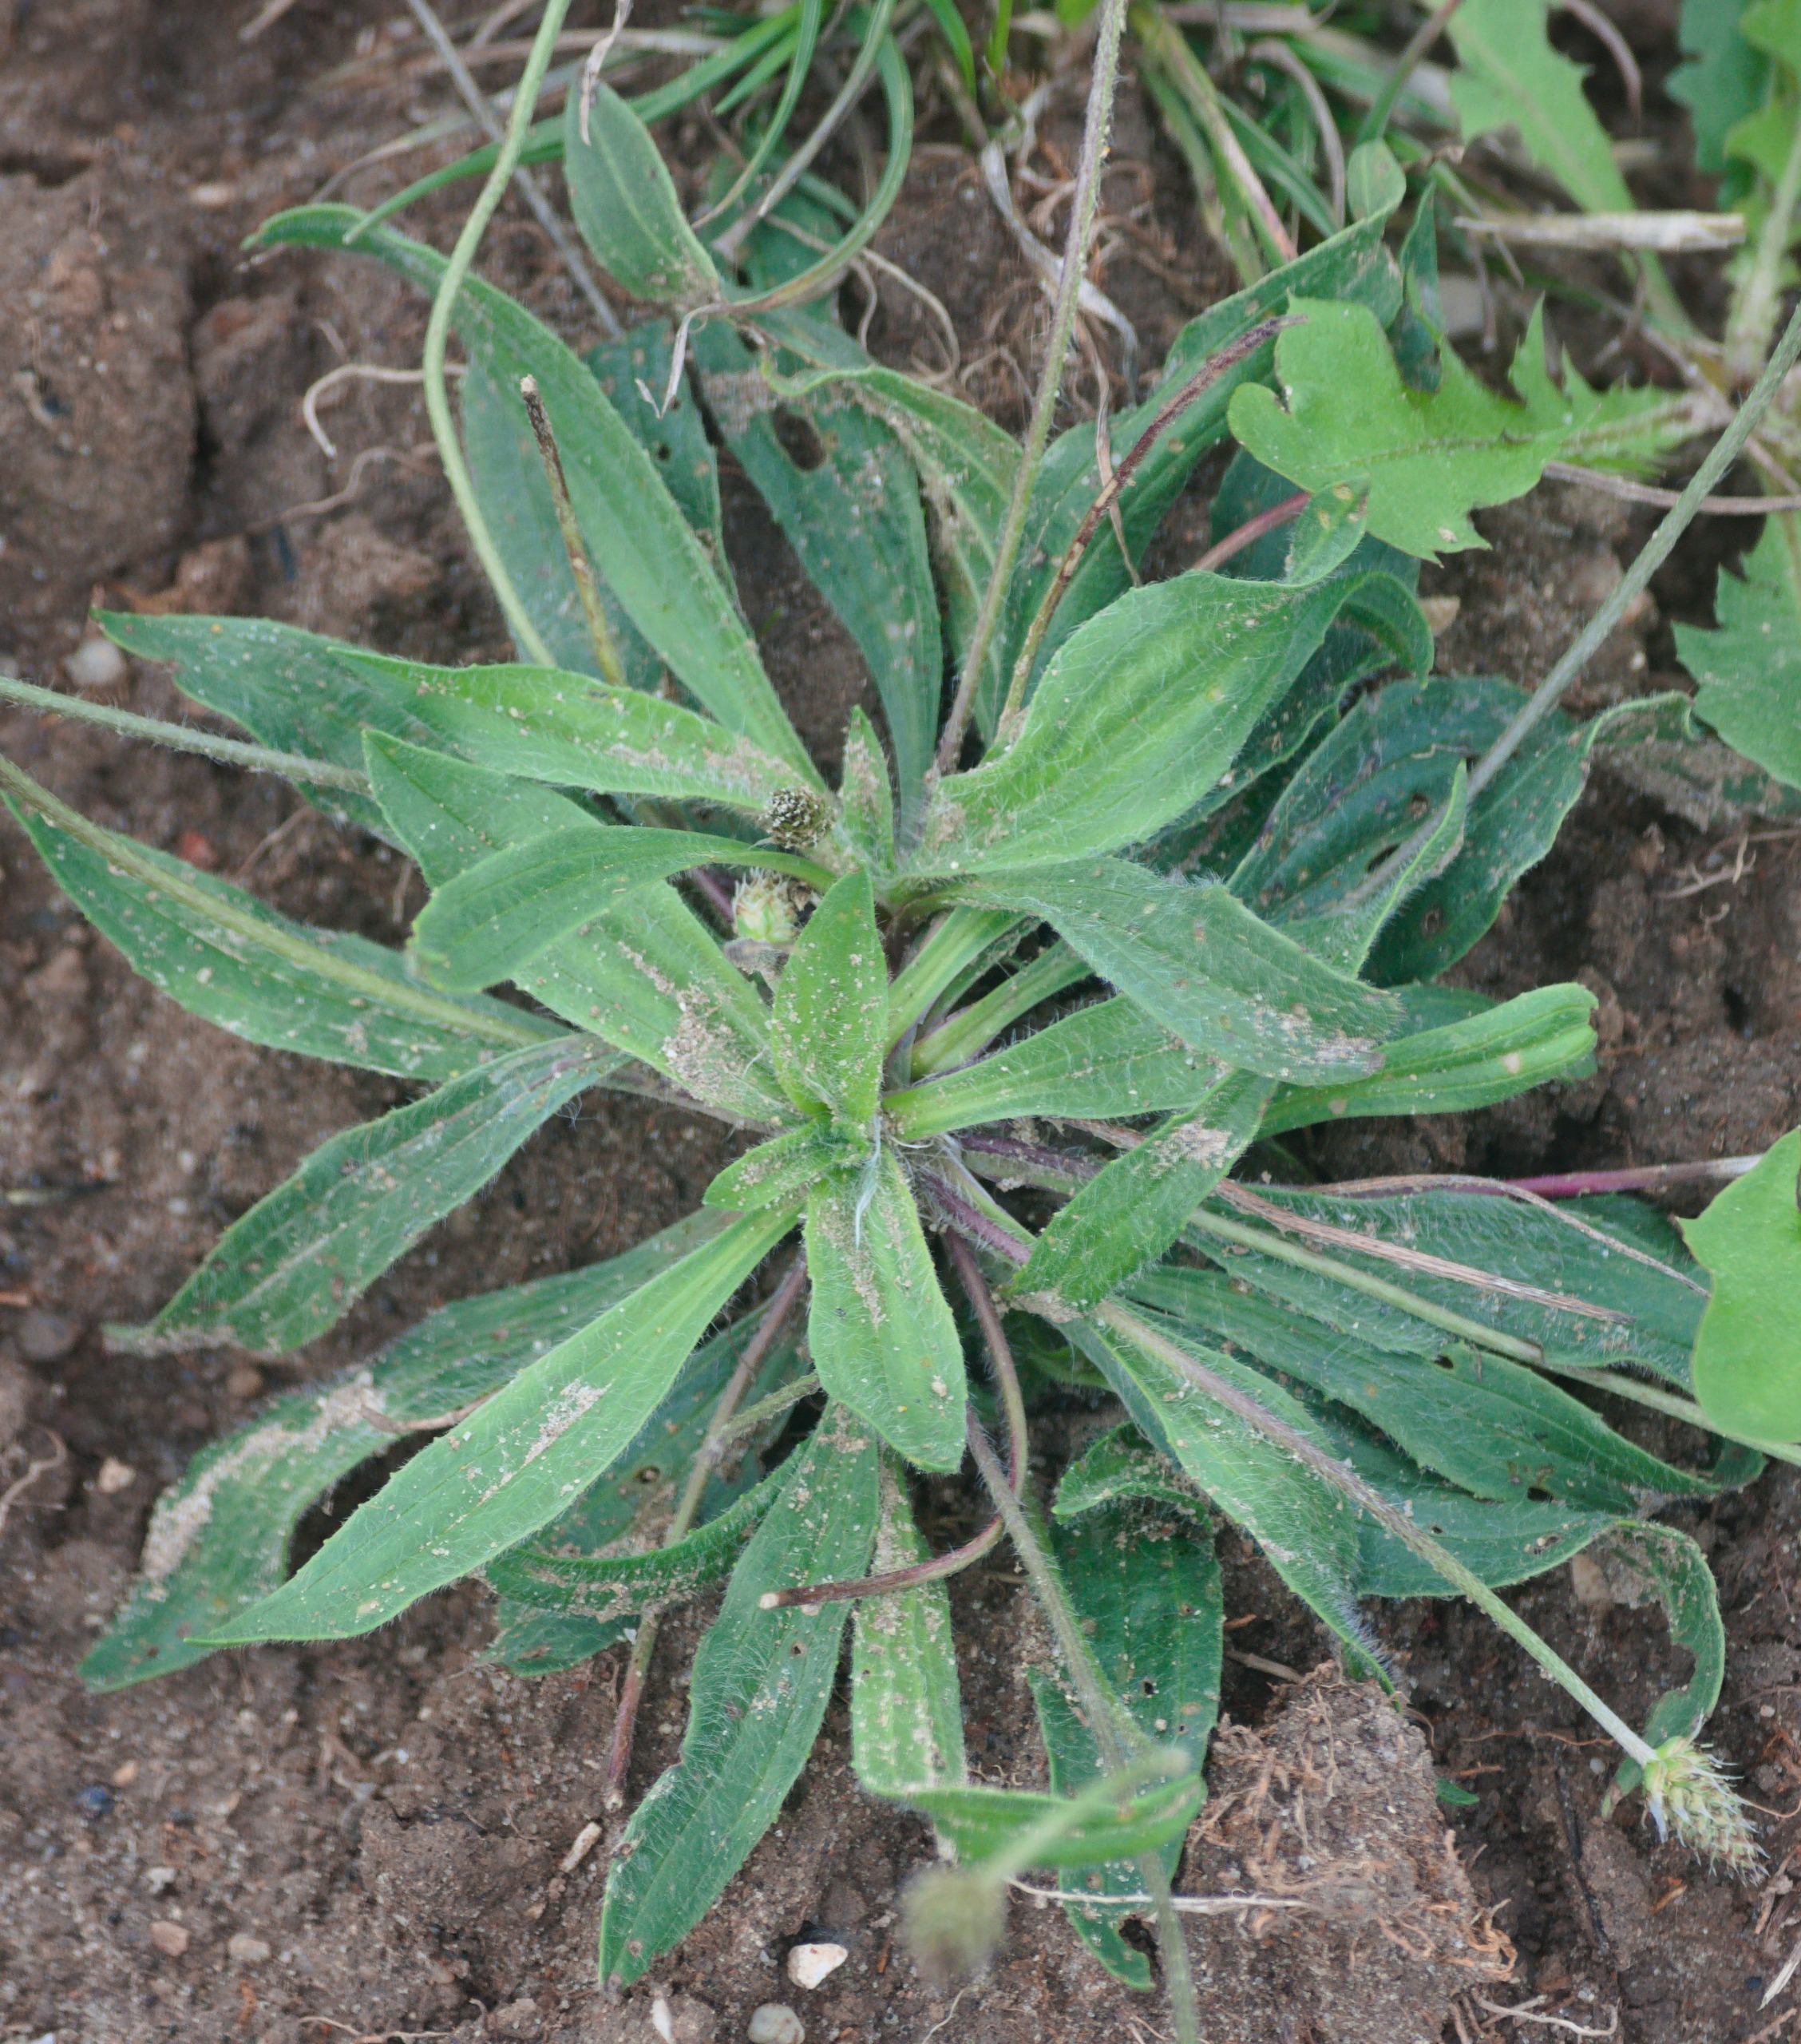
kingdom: Plantae
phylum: Tracheophyta
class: Magnoliopsida
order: Lamiales
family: Plantaginaceae
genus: Plantago
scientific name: Plantago lanceolata
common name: Lancet-vejbred
